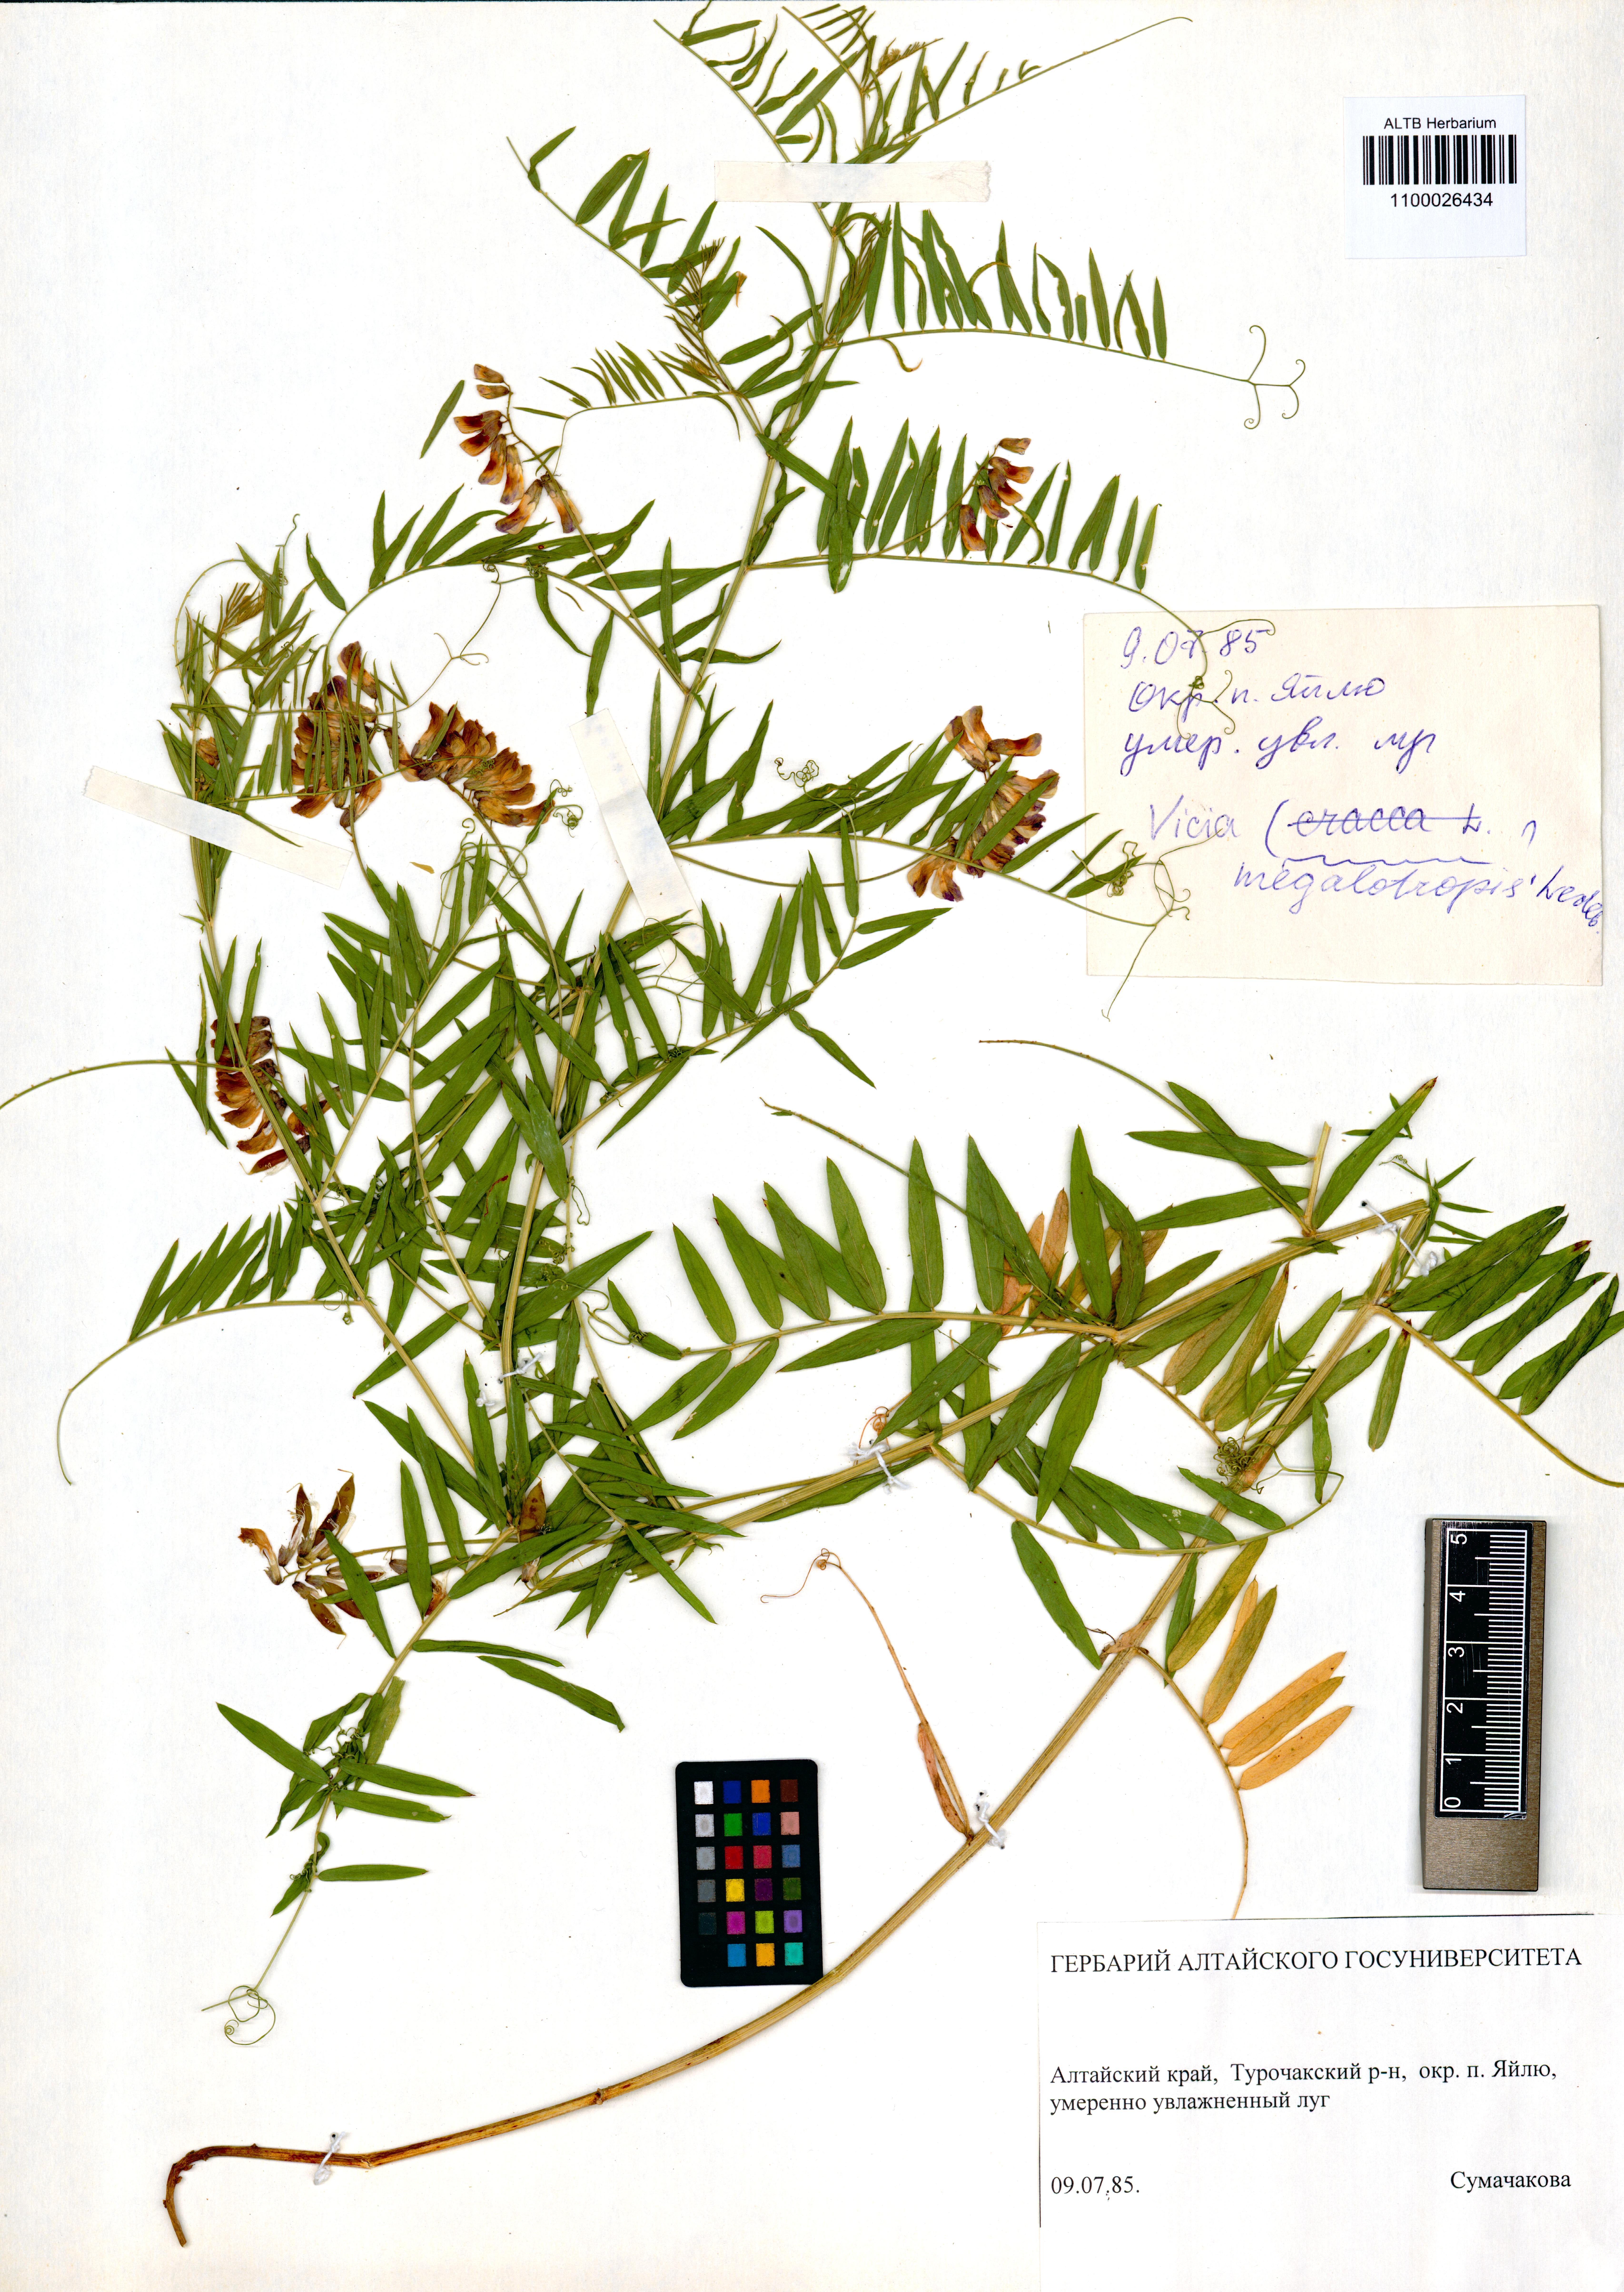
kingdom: Plantae
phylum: Tracheophyta
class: Magnoliopsida
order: Fabales
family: Fabaceae
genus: Vicia
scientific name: Vicia megalotropis
